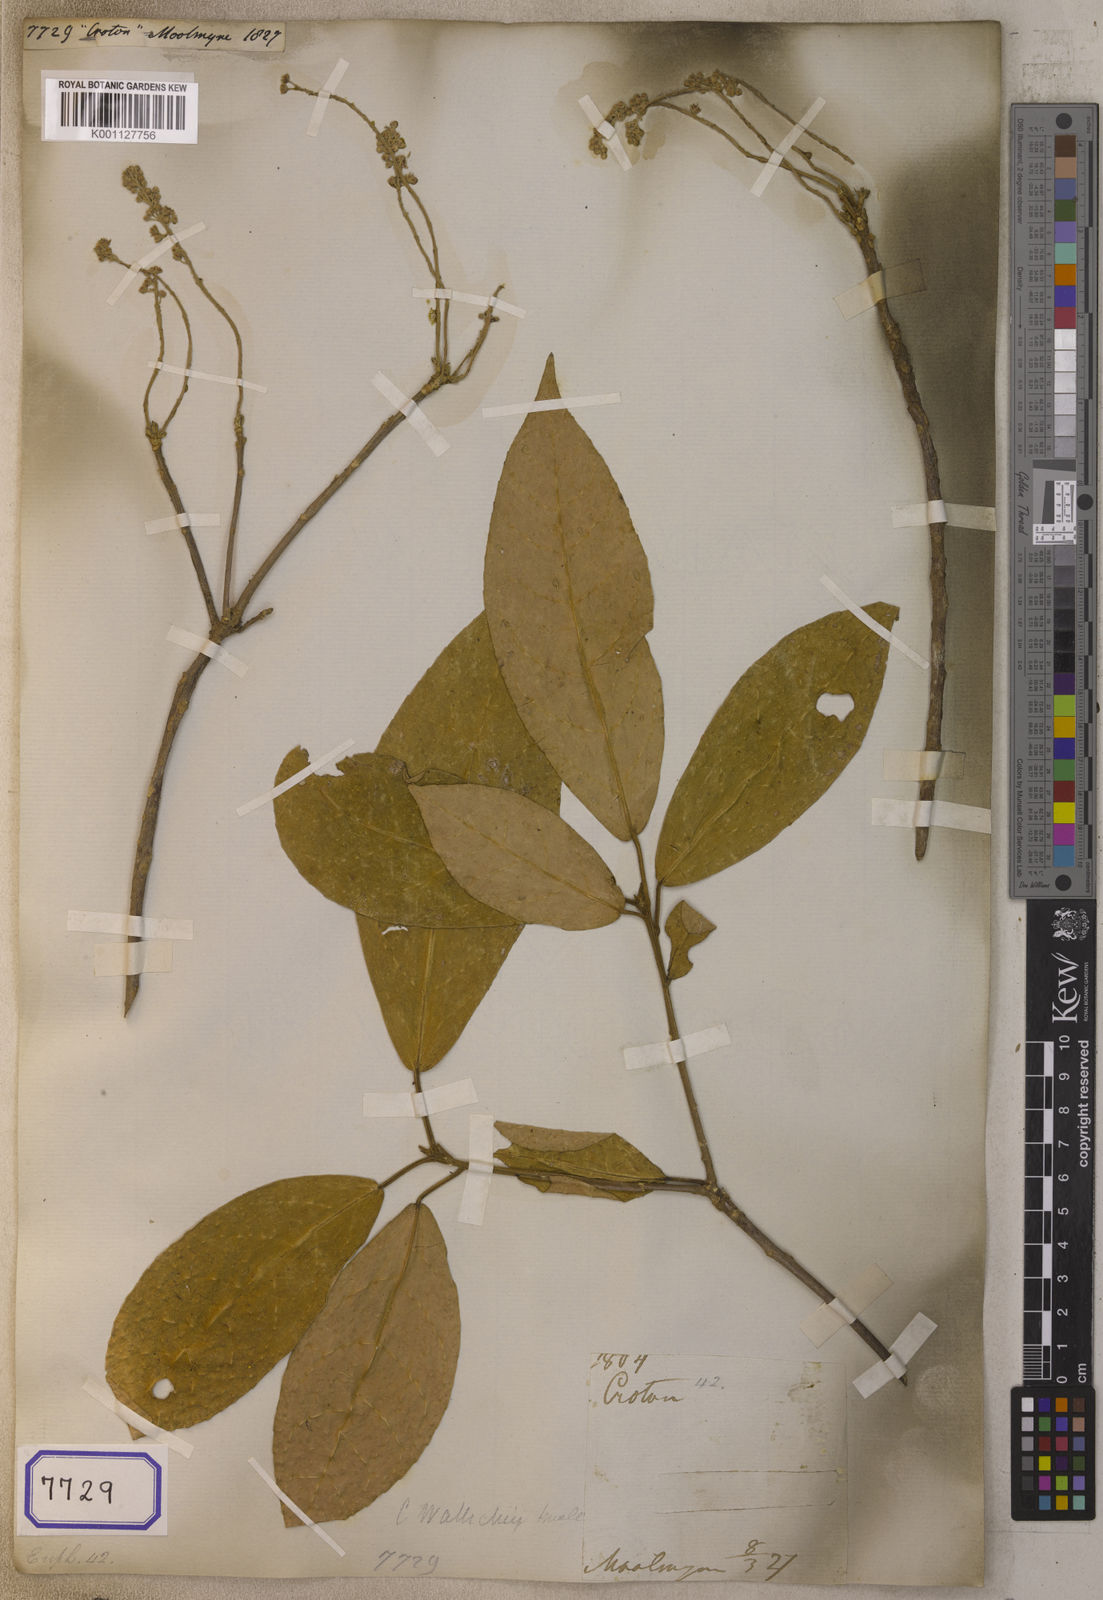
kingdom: Plantae
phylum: Tracheophyta
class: Magnoliopsida
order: Malpighiales
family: Euphorbiaceae
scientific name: Euphorbiaceae
